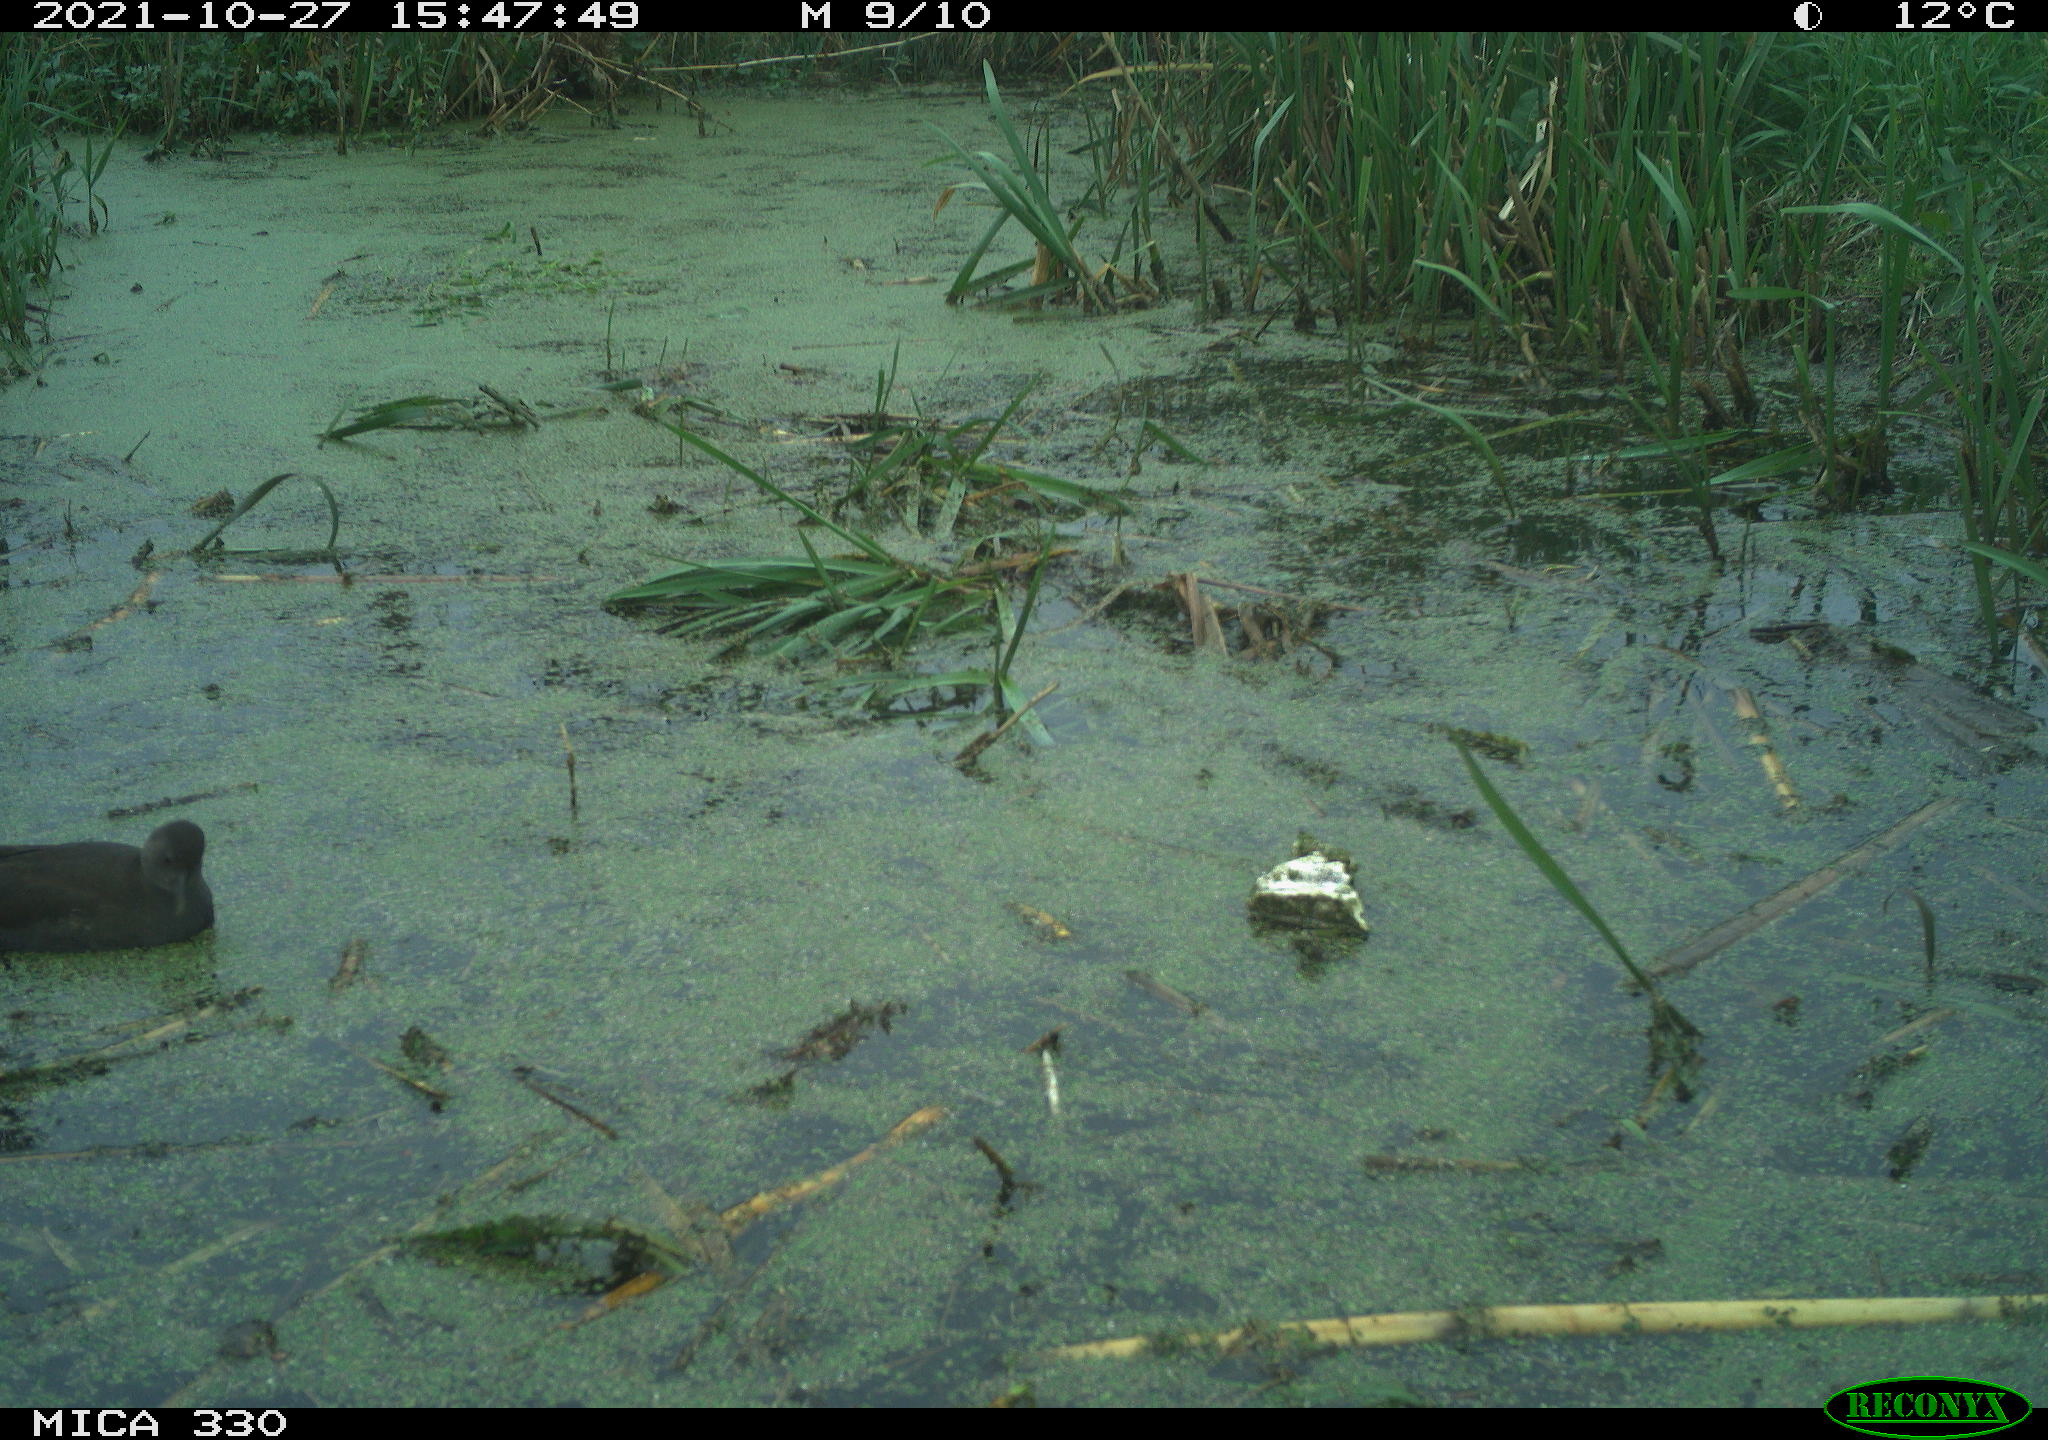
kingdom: Animalia
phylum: Chordata
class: Aves
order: Gruiformes
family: Rallidae
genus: Gallinula
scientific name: Gallinula chloropus
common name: Common moorhen
